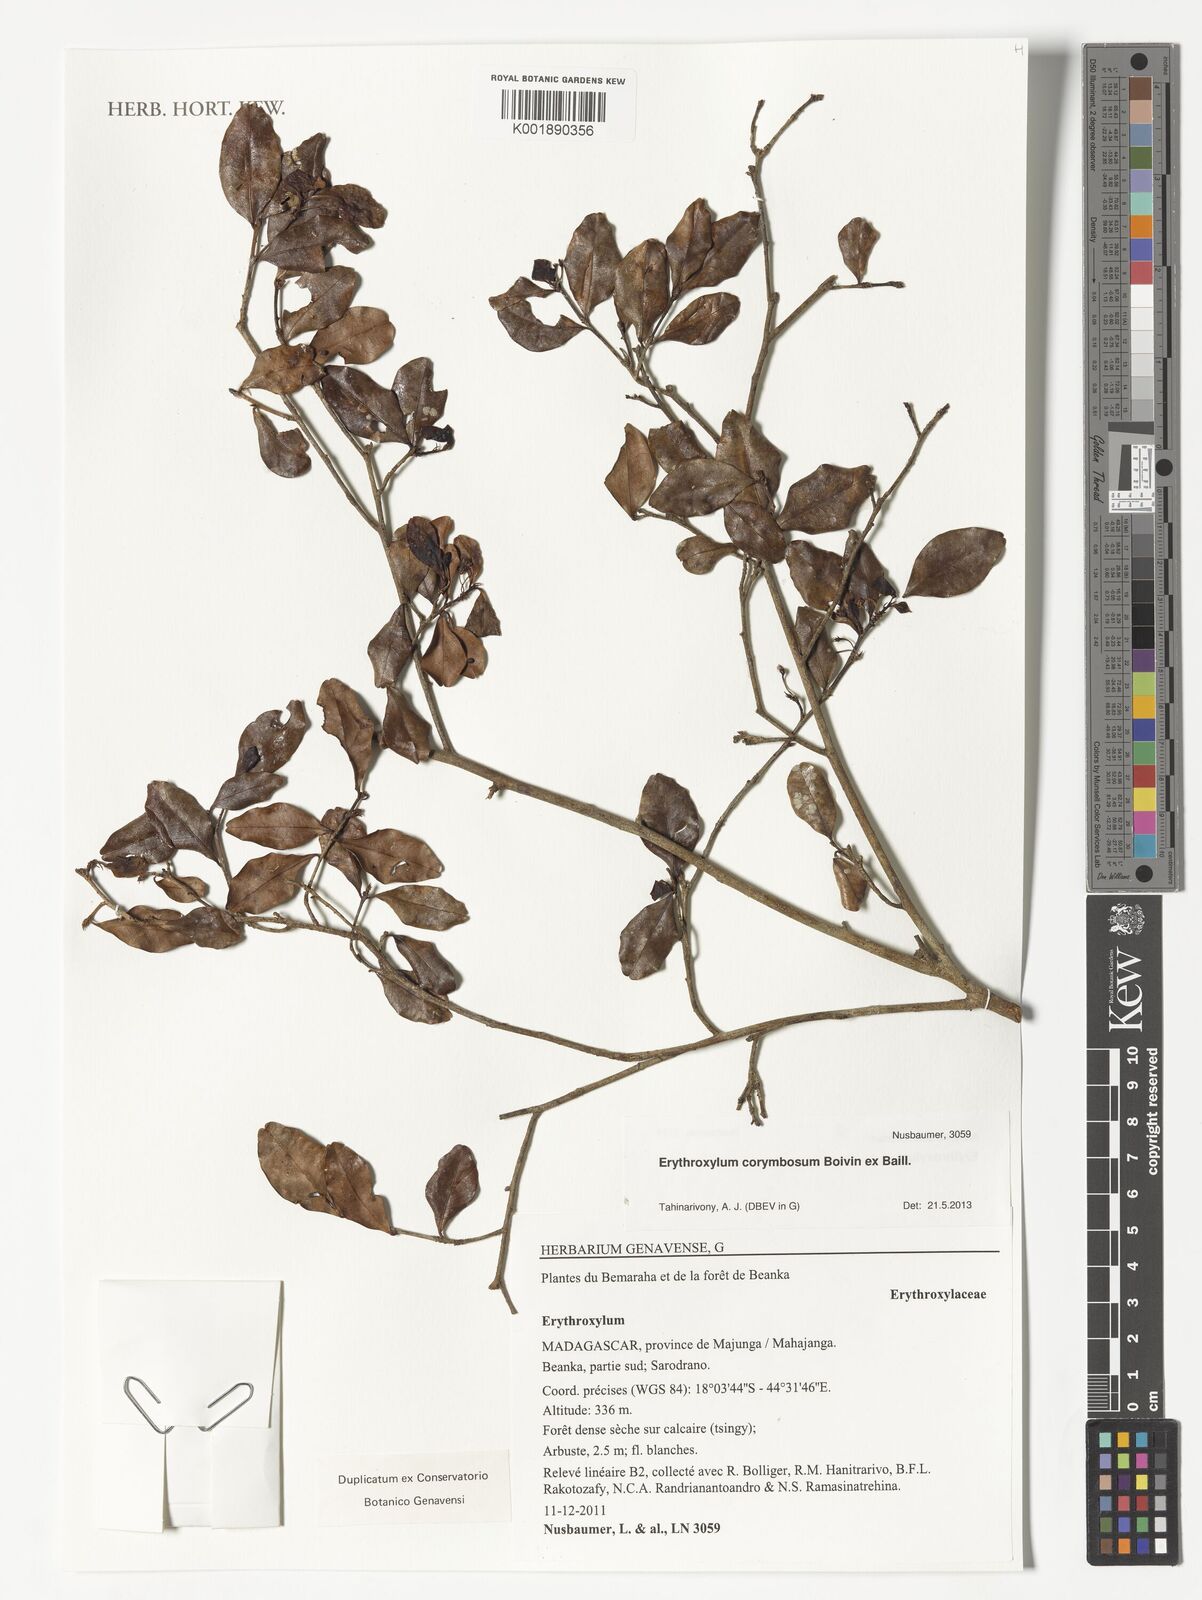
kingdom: Plantae
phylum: Tracheophyta
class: Magnoliopsida
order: Malpighiales
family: Erythroxylaceae
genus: Erythroxylum
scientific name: Erythroxylum corymbosum
